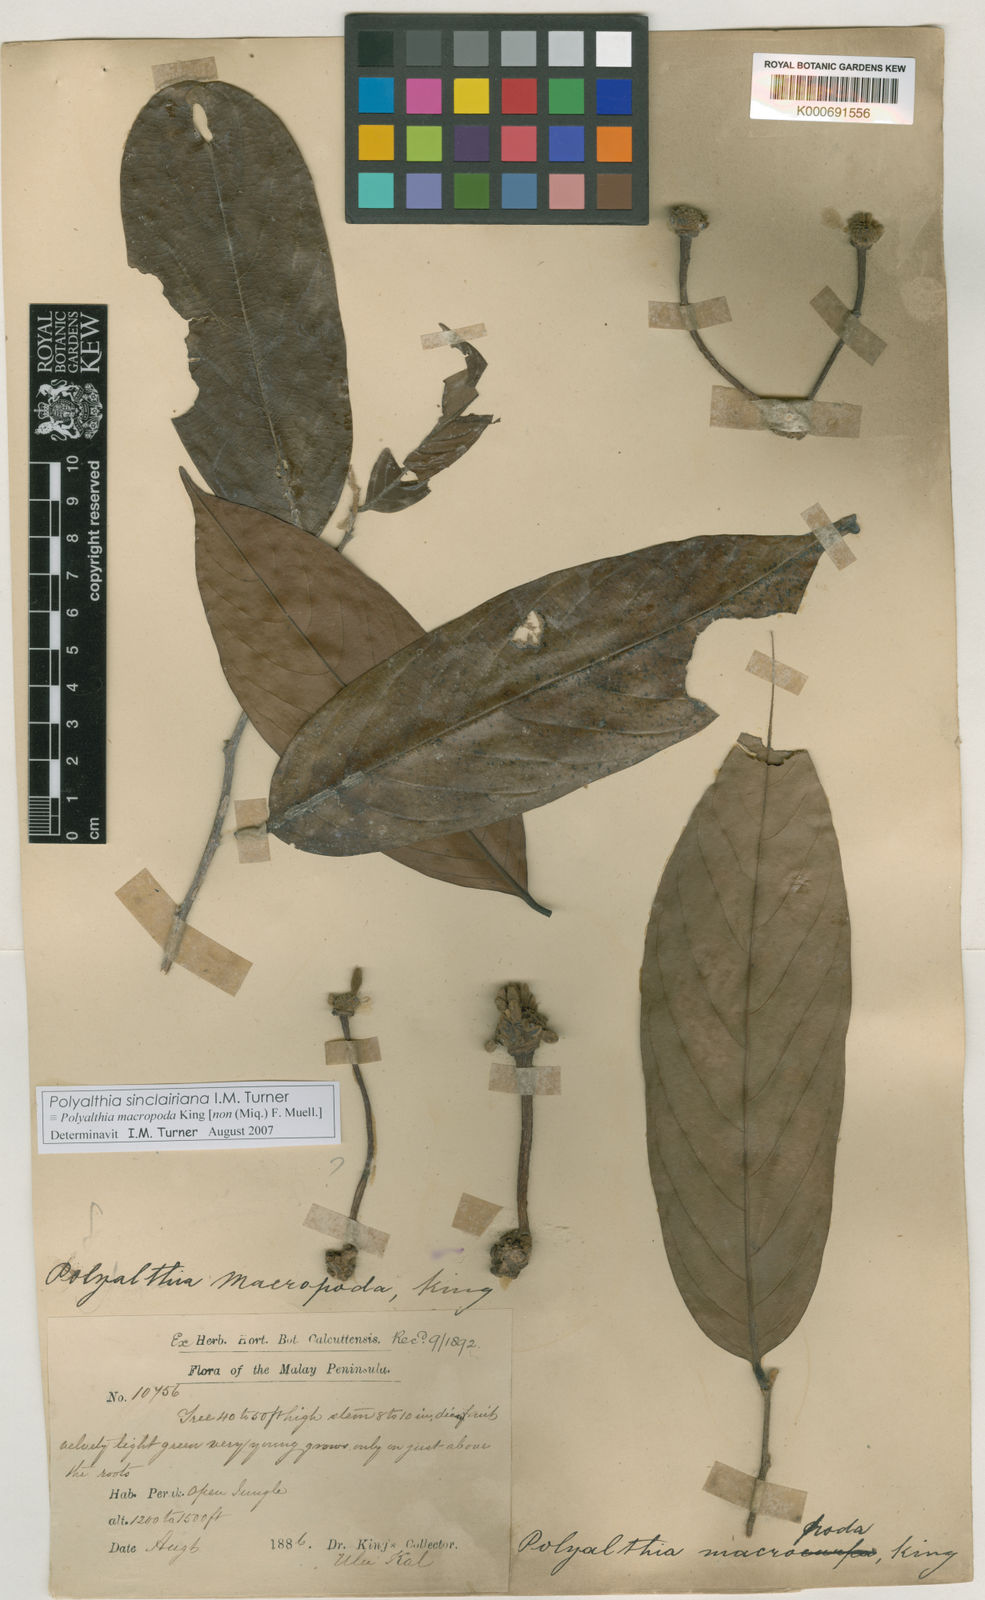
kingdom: Plantae
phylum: Tracheophyta
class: Magnoliopsida
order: Magnoliales
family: Annonaceae
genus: Polyalthia
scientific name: Polyalthia sinclairiana
